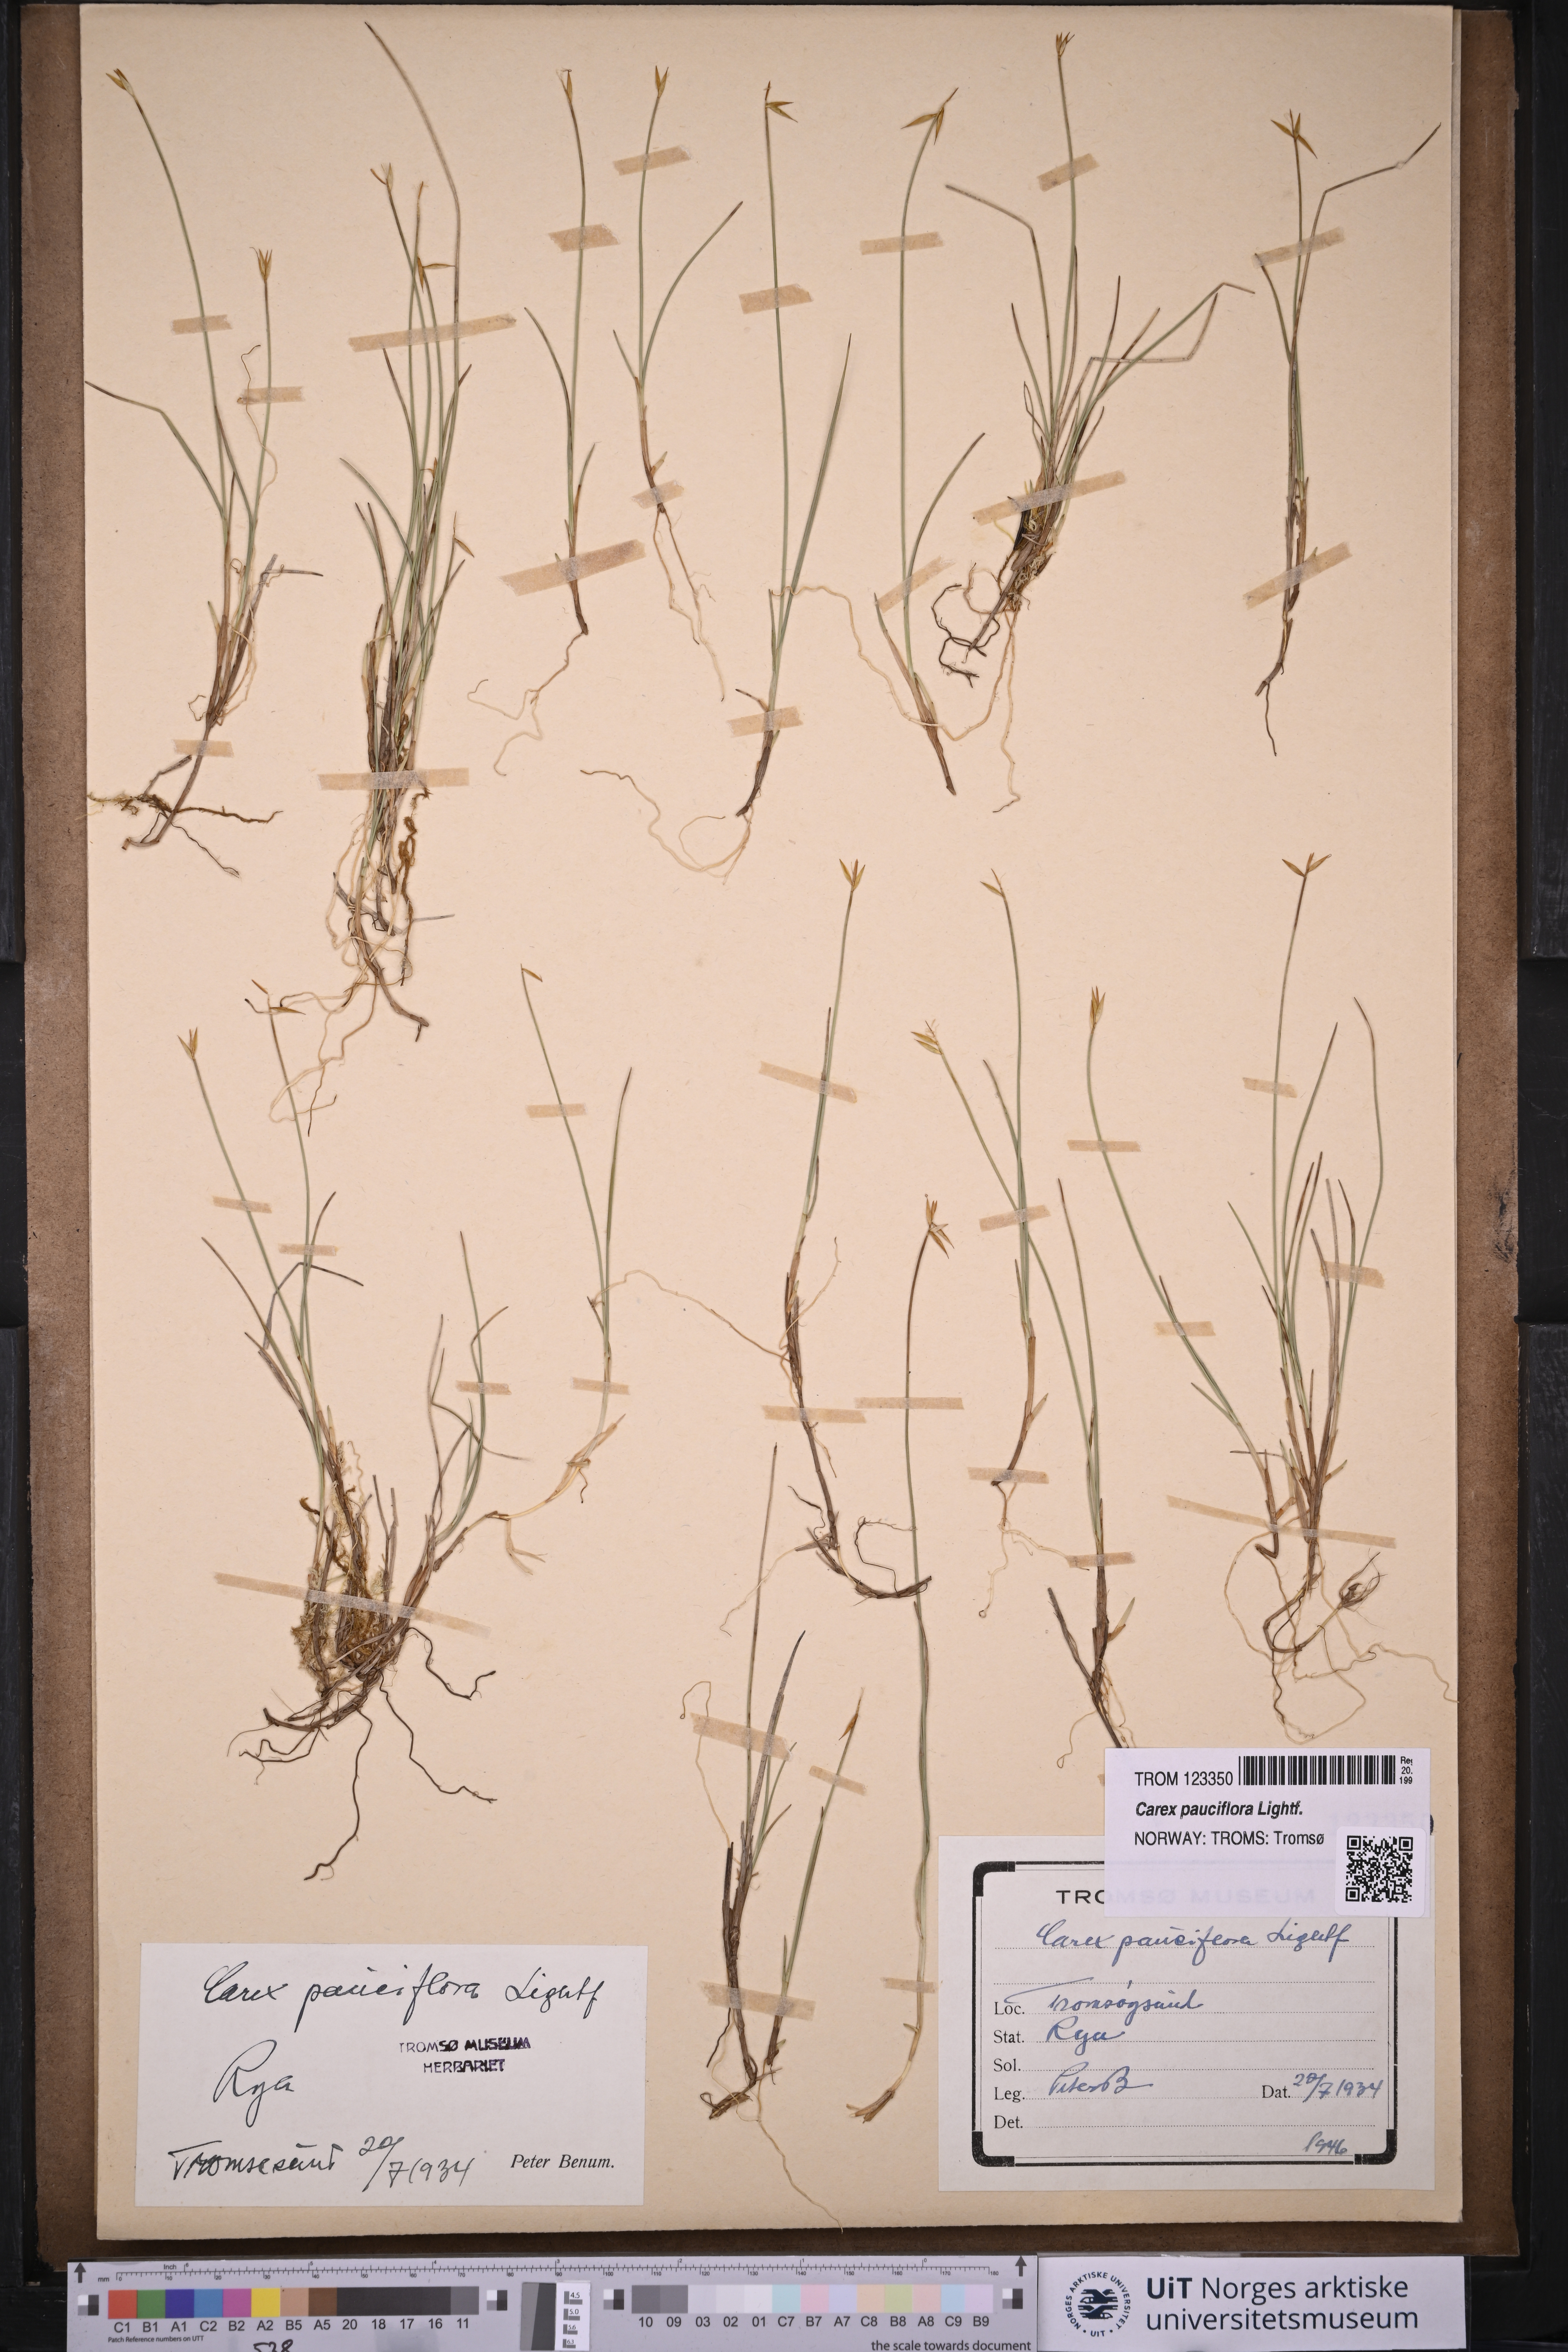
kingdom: Plantae
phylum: Tracheophyta
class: Liliopsida
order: Poales
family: Cyperaceae
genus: Carex
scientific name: Carex pauciflora
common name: Few-flowered sedge
